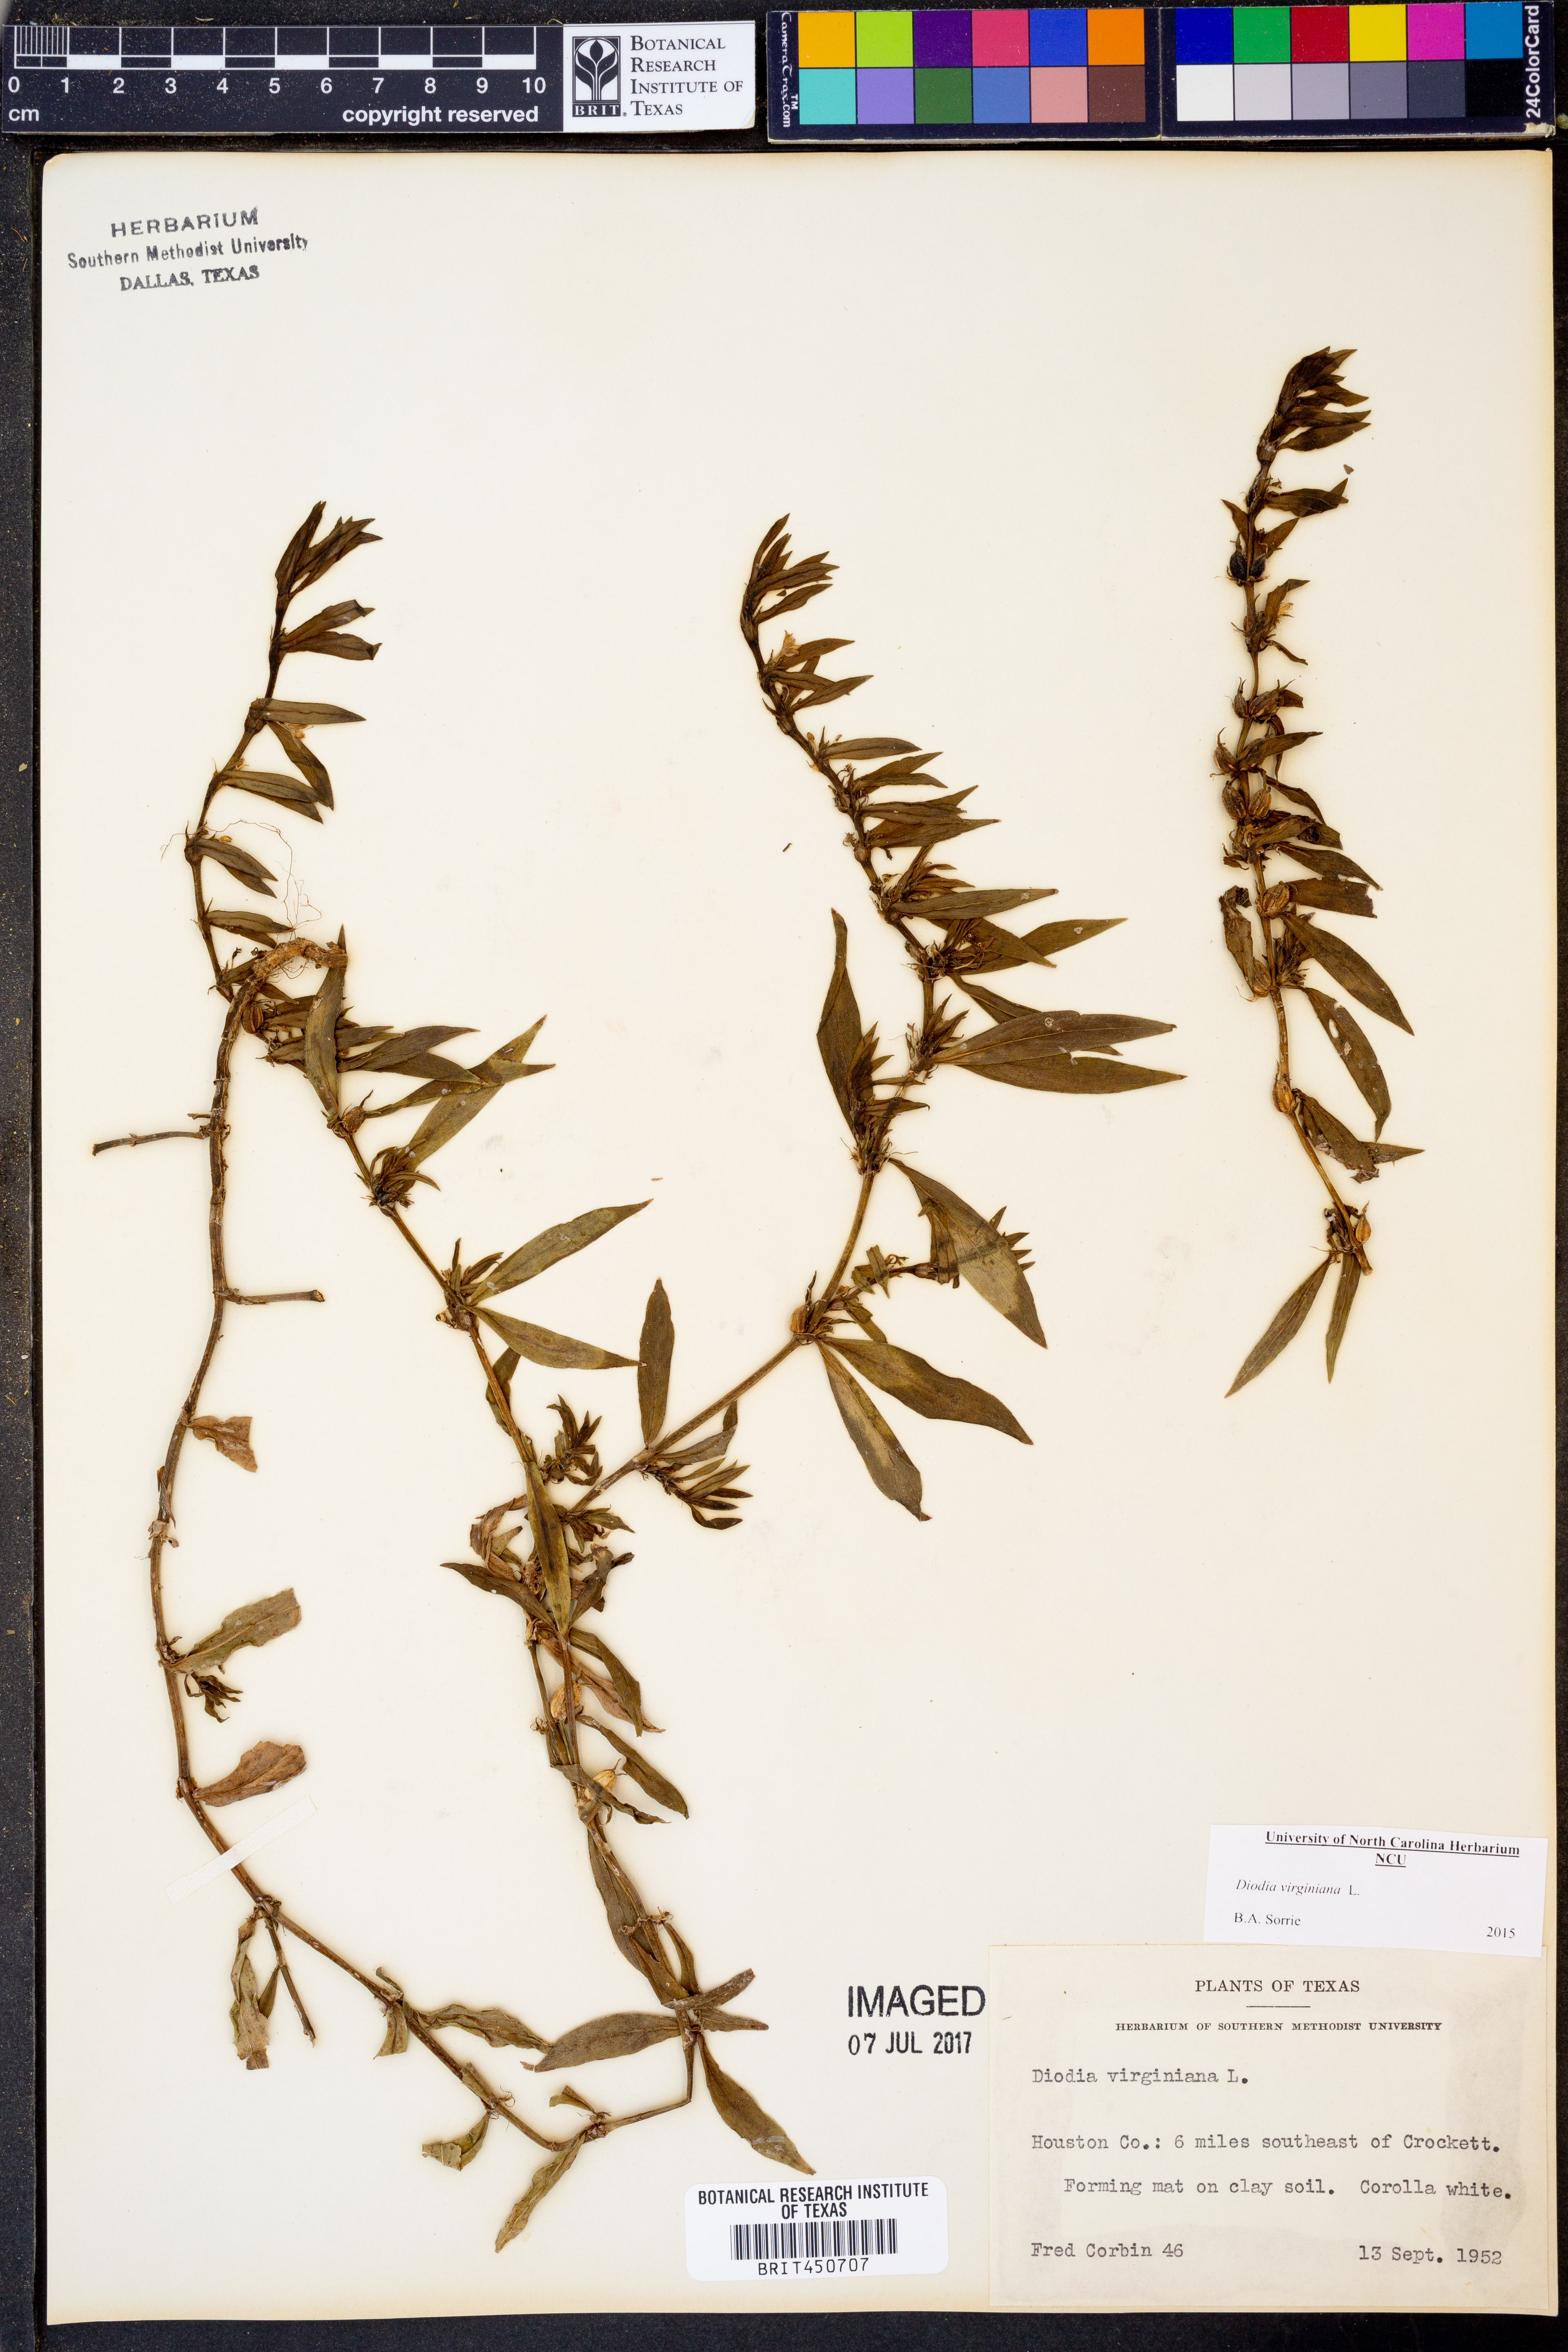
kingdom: Plantae
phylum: Tracheophyta
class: Magnoliopsida
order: Gentianales
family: Rubiaceae
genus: Diodia
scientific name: Diodia virginiana
